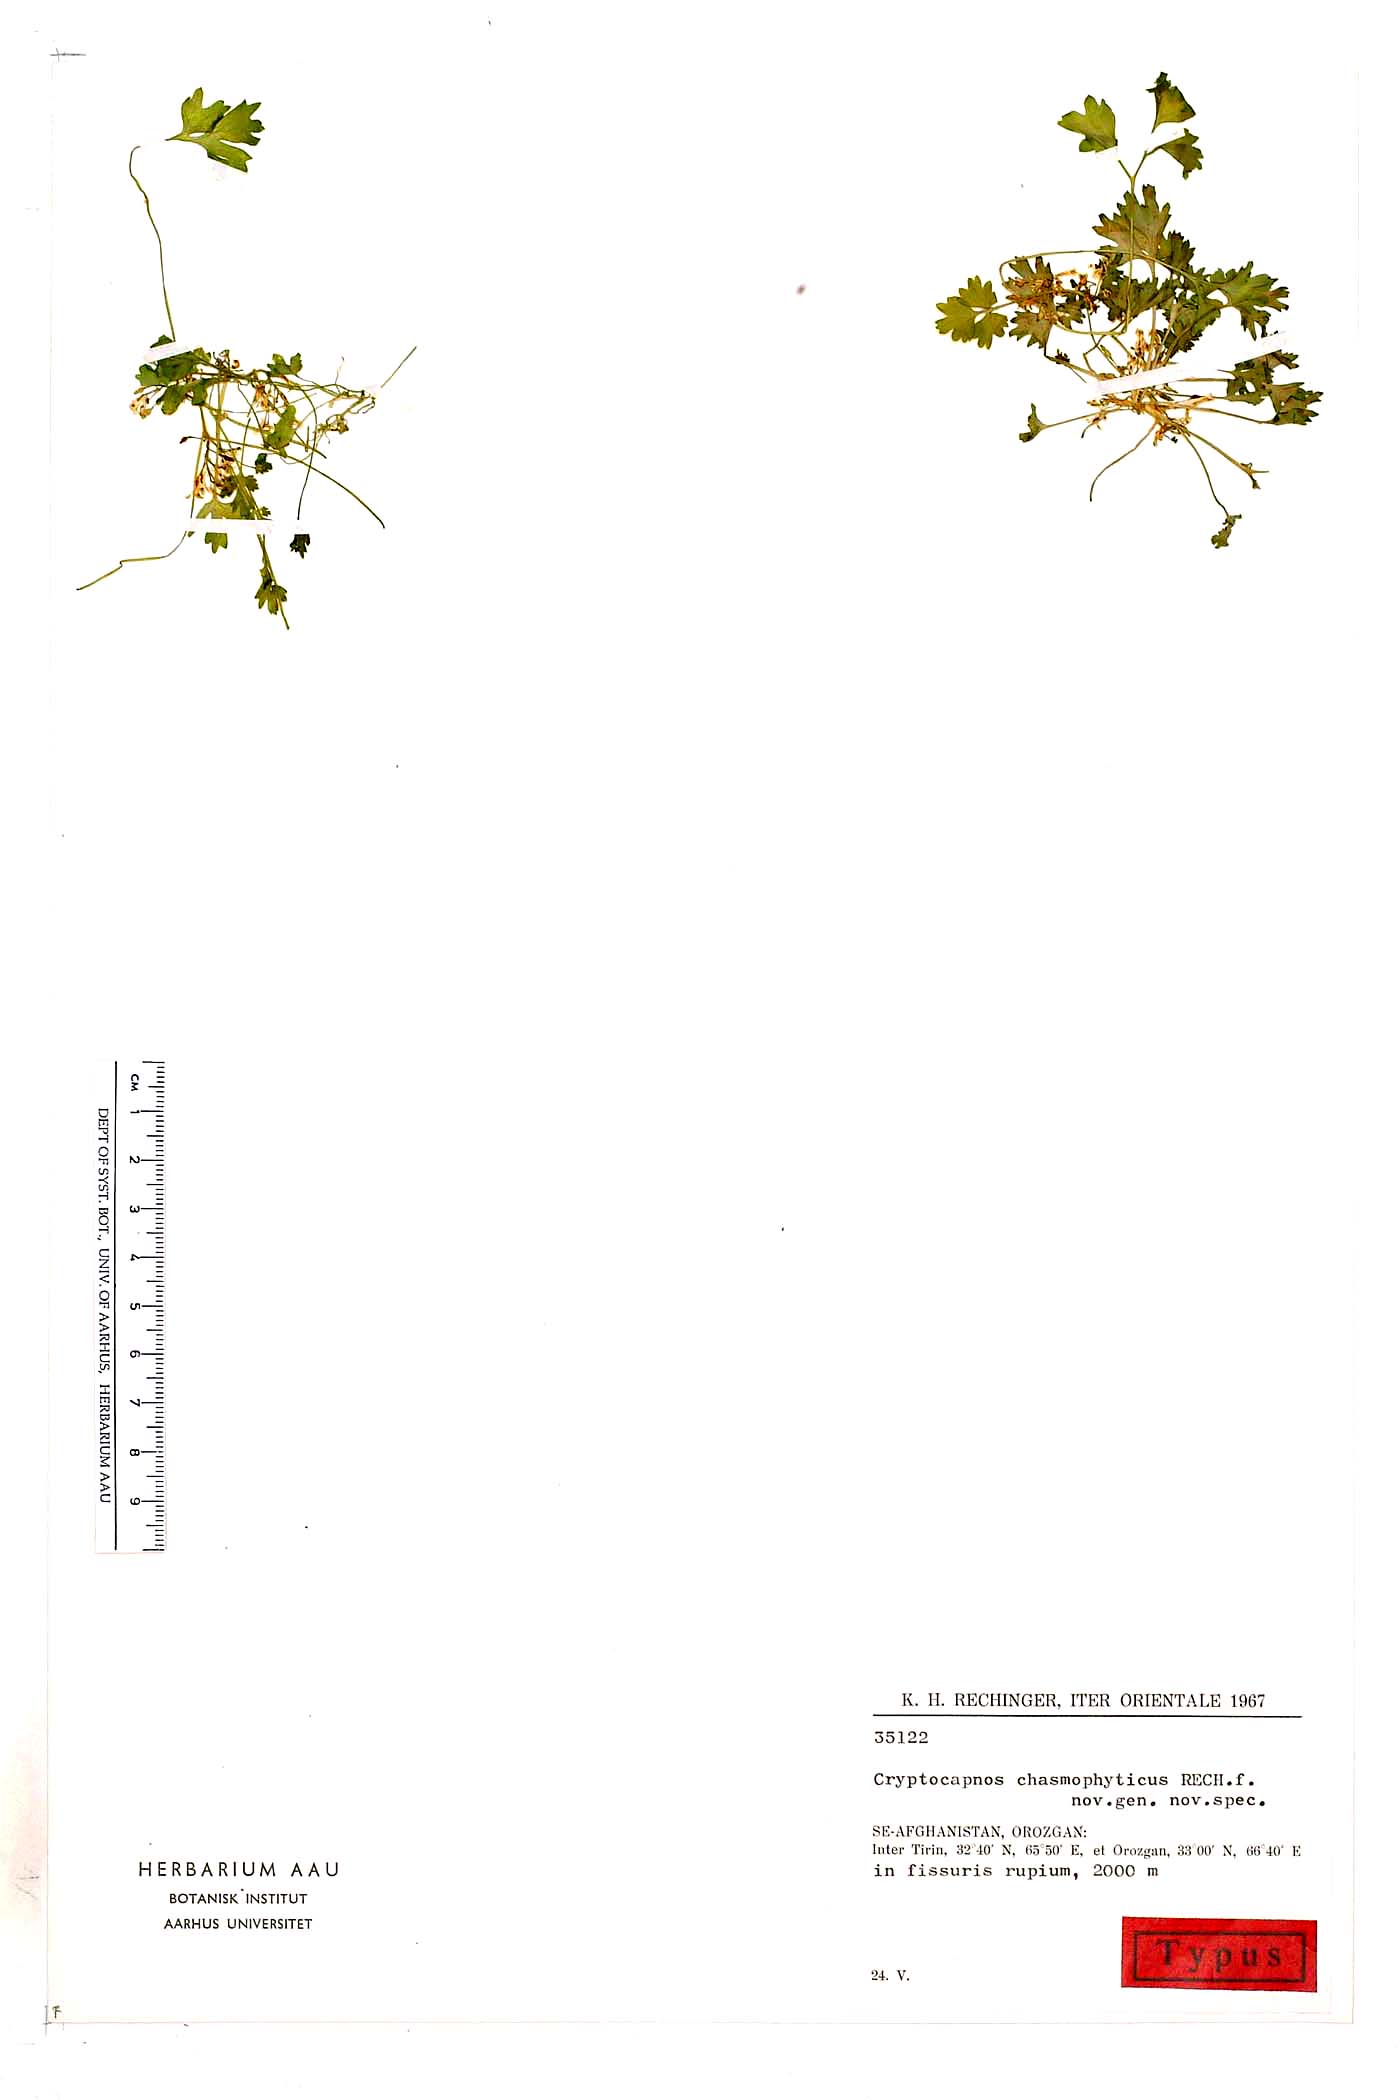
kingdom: Plantae
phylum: Tracheophyta
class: Magnoliopsida
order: Ranunculales
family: Papaveraceae
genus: Cryptocapnos
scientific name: Cryptocapnos chasmophytica
